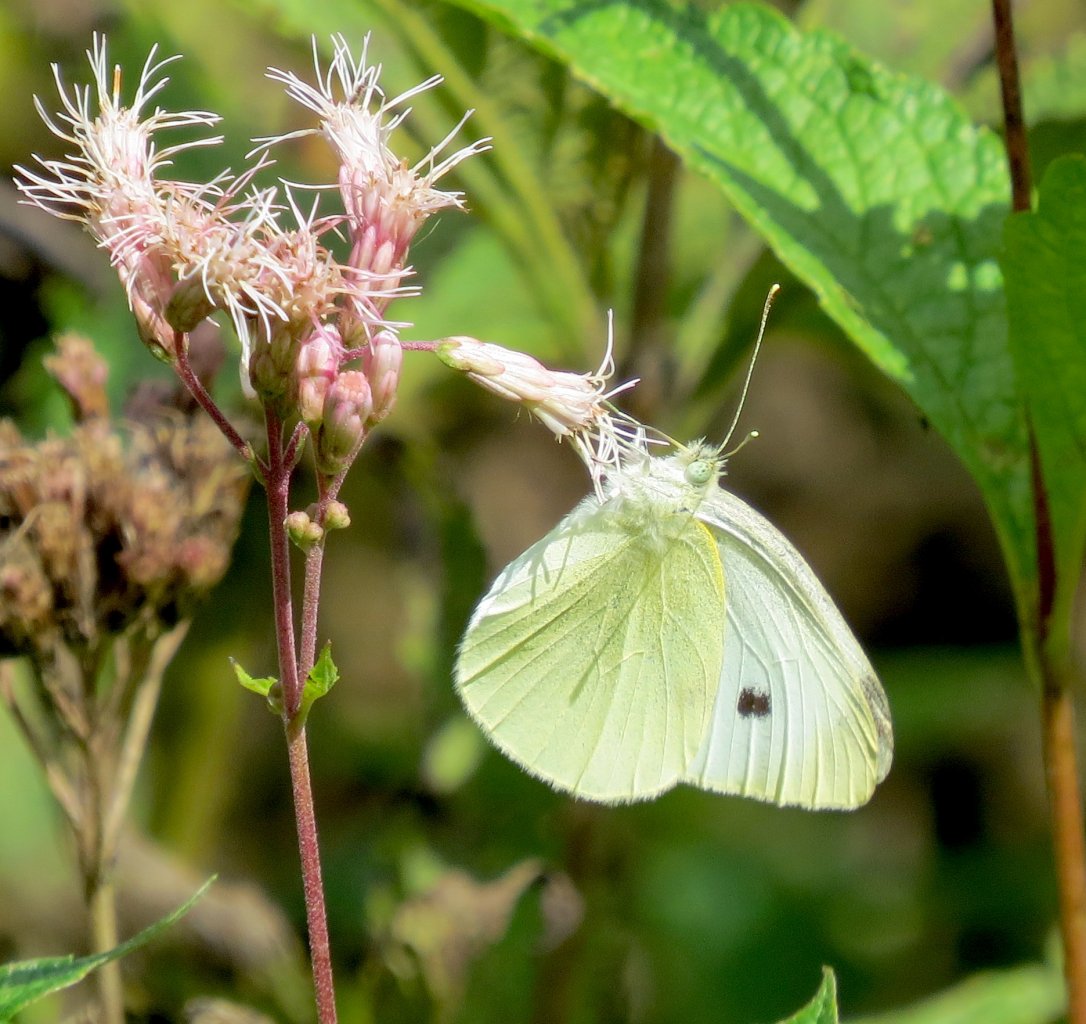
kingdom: Animalia
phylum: Arthropoda
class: Insecta
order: Lepidoptera
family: Pieridae
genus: Pieris
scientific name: Pieris rapae
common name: Cabbage White
